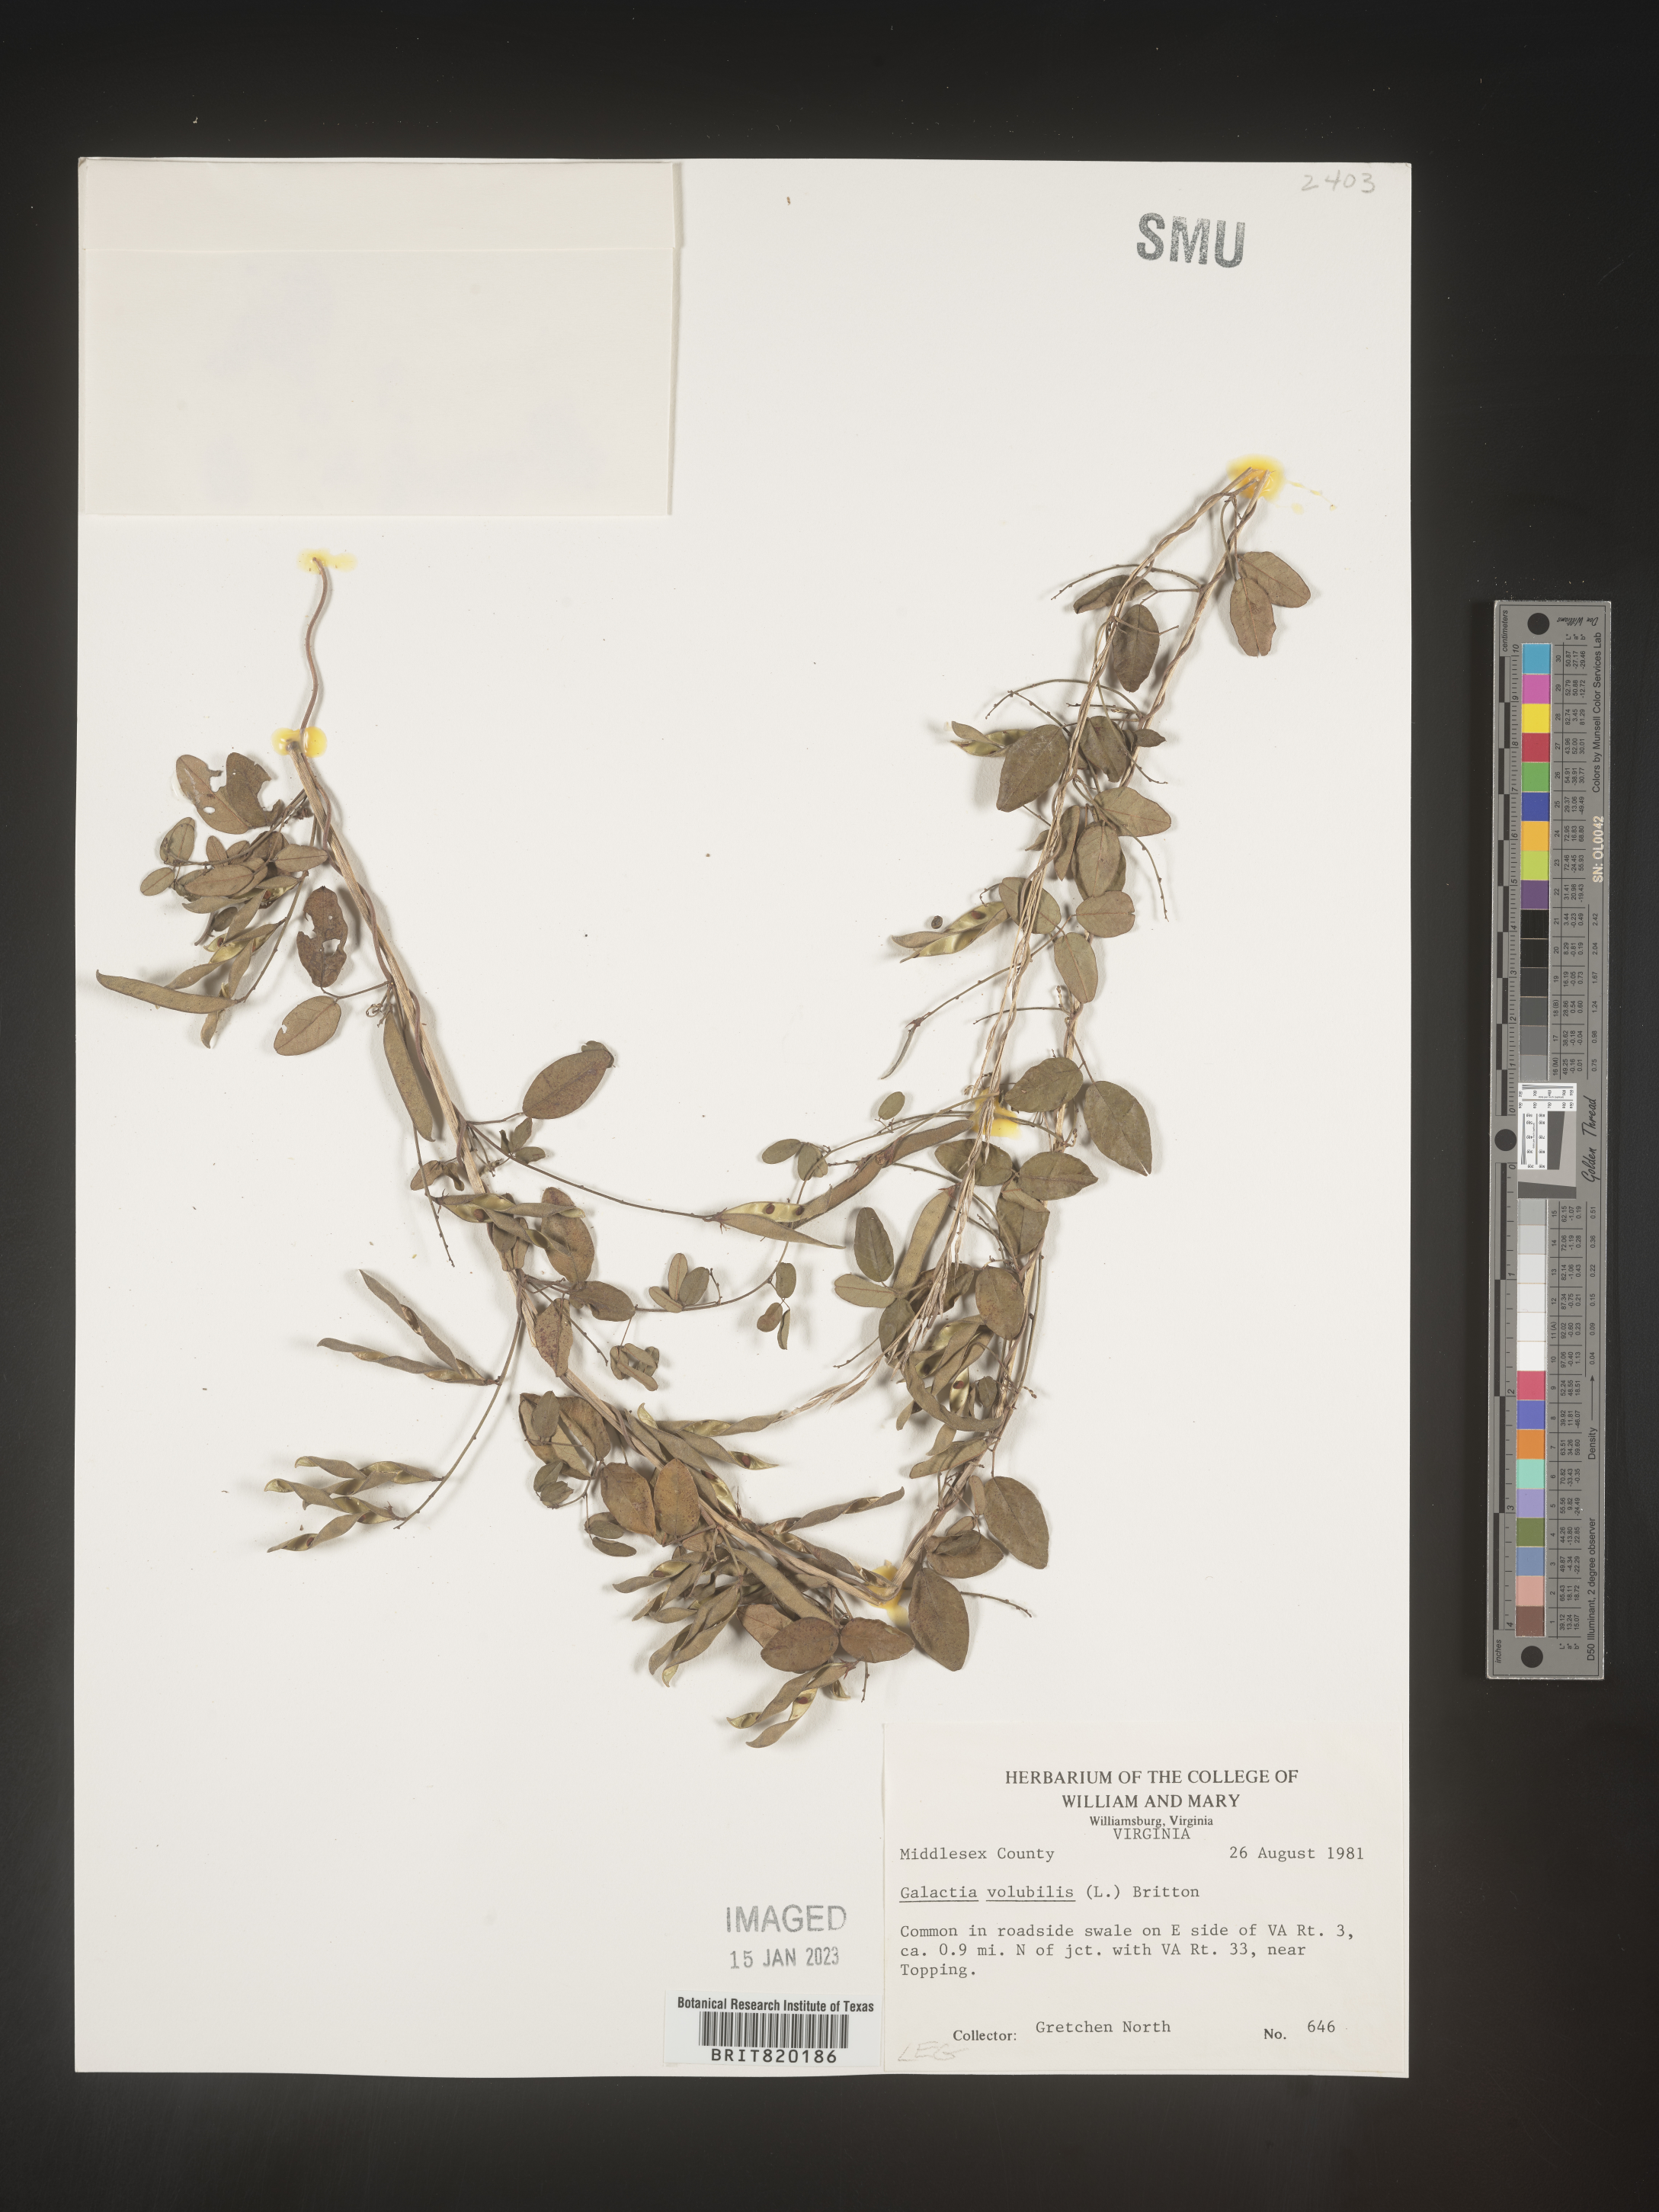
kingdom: Plantae
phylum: Tracheophyta
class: Magnoliopsida
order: Fabales
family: Fabaceae
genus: Galactia
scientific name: Galactia volubilis
